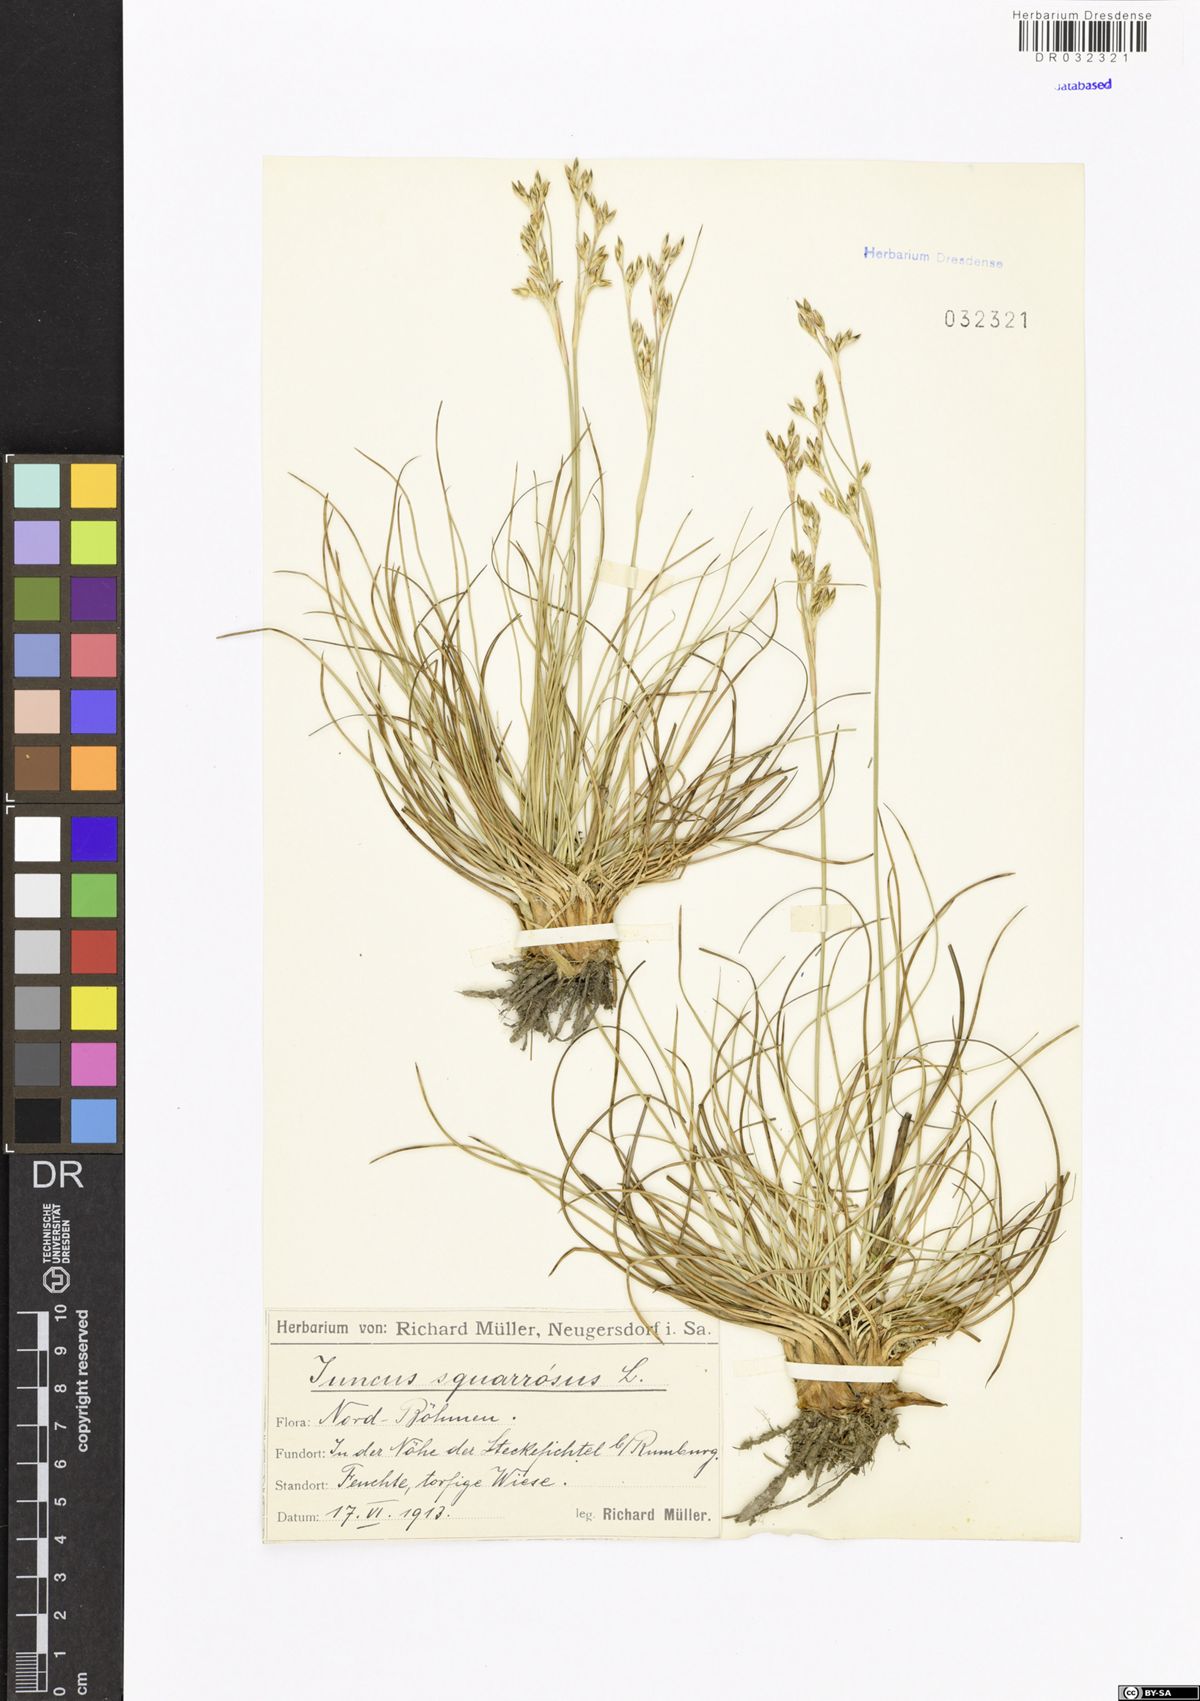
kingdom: Plantae
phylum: Tracheophyta
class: Liliopsida
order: Poales
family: Juncaceae
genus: Juncus
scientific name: Juncus squarrosus
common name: Heath rush
